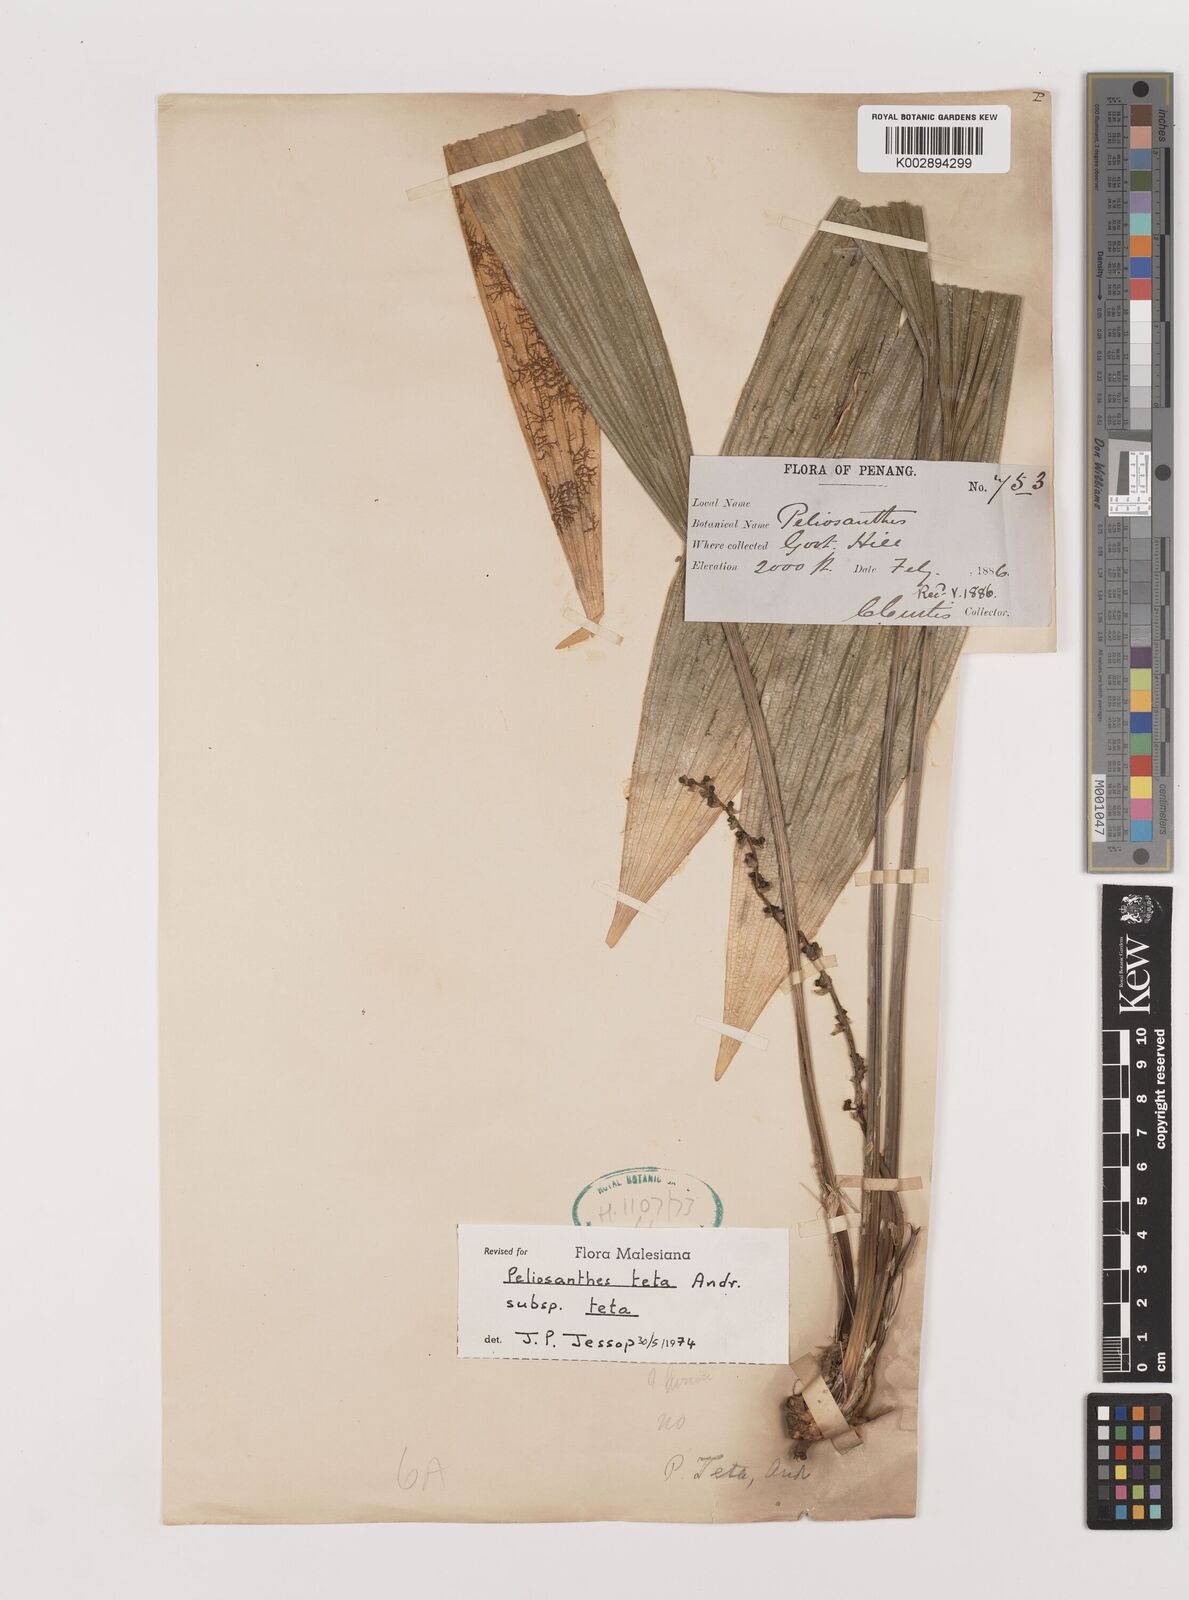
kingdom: Plantae
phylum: Tracheophyta
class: Liliopsida
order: Asparagales
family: Asparagaceae
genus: Peliosanthes
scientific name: Peliosanthes teta
